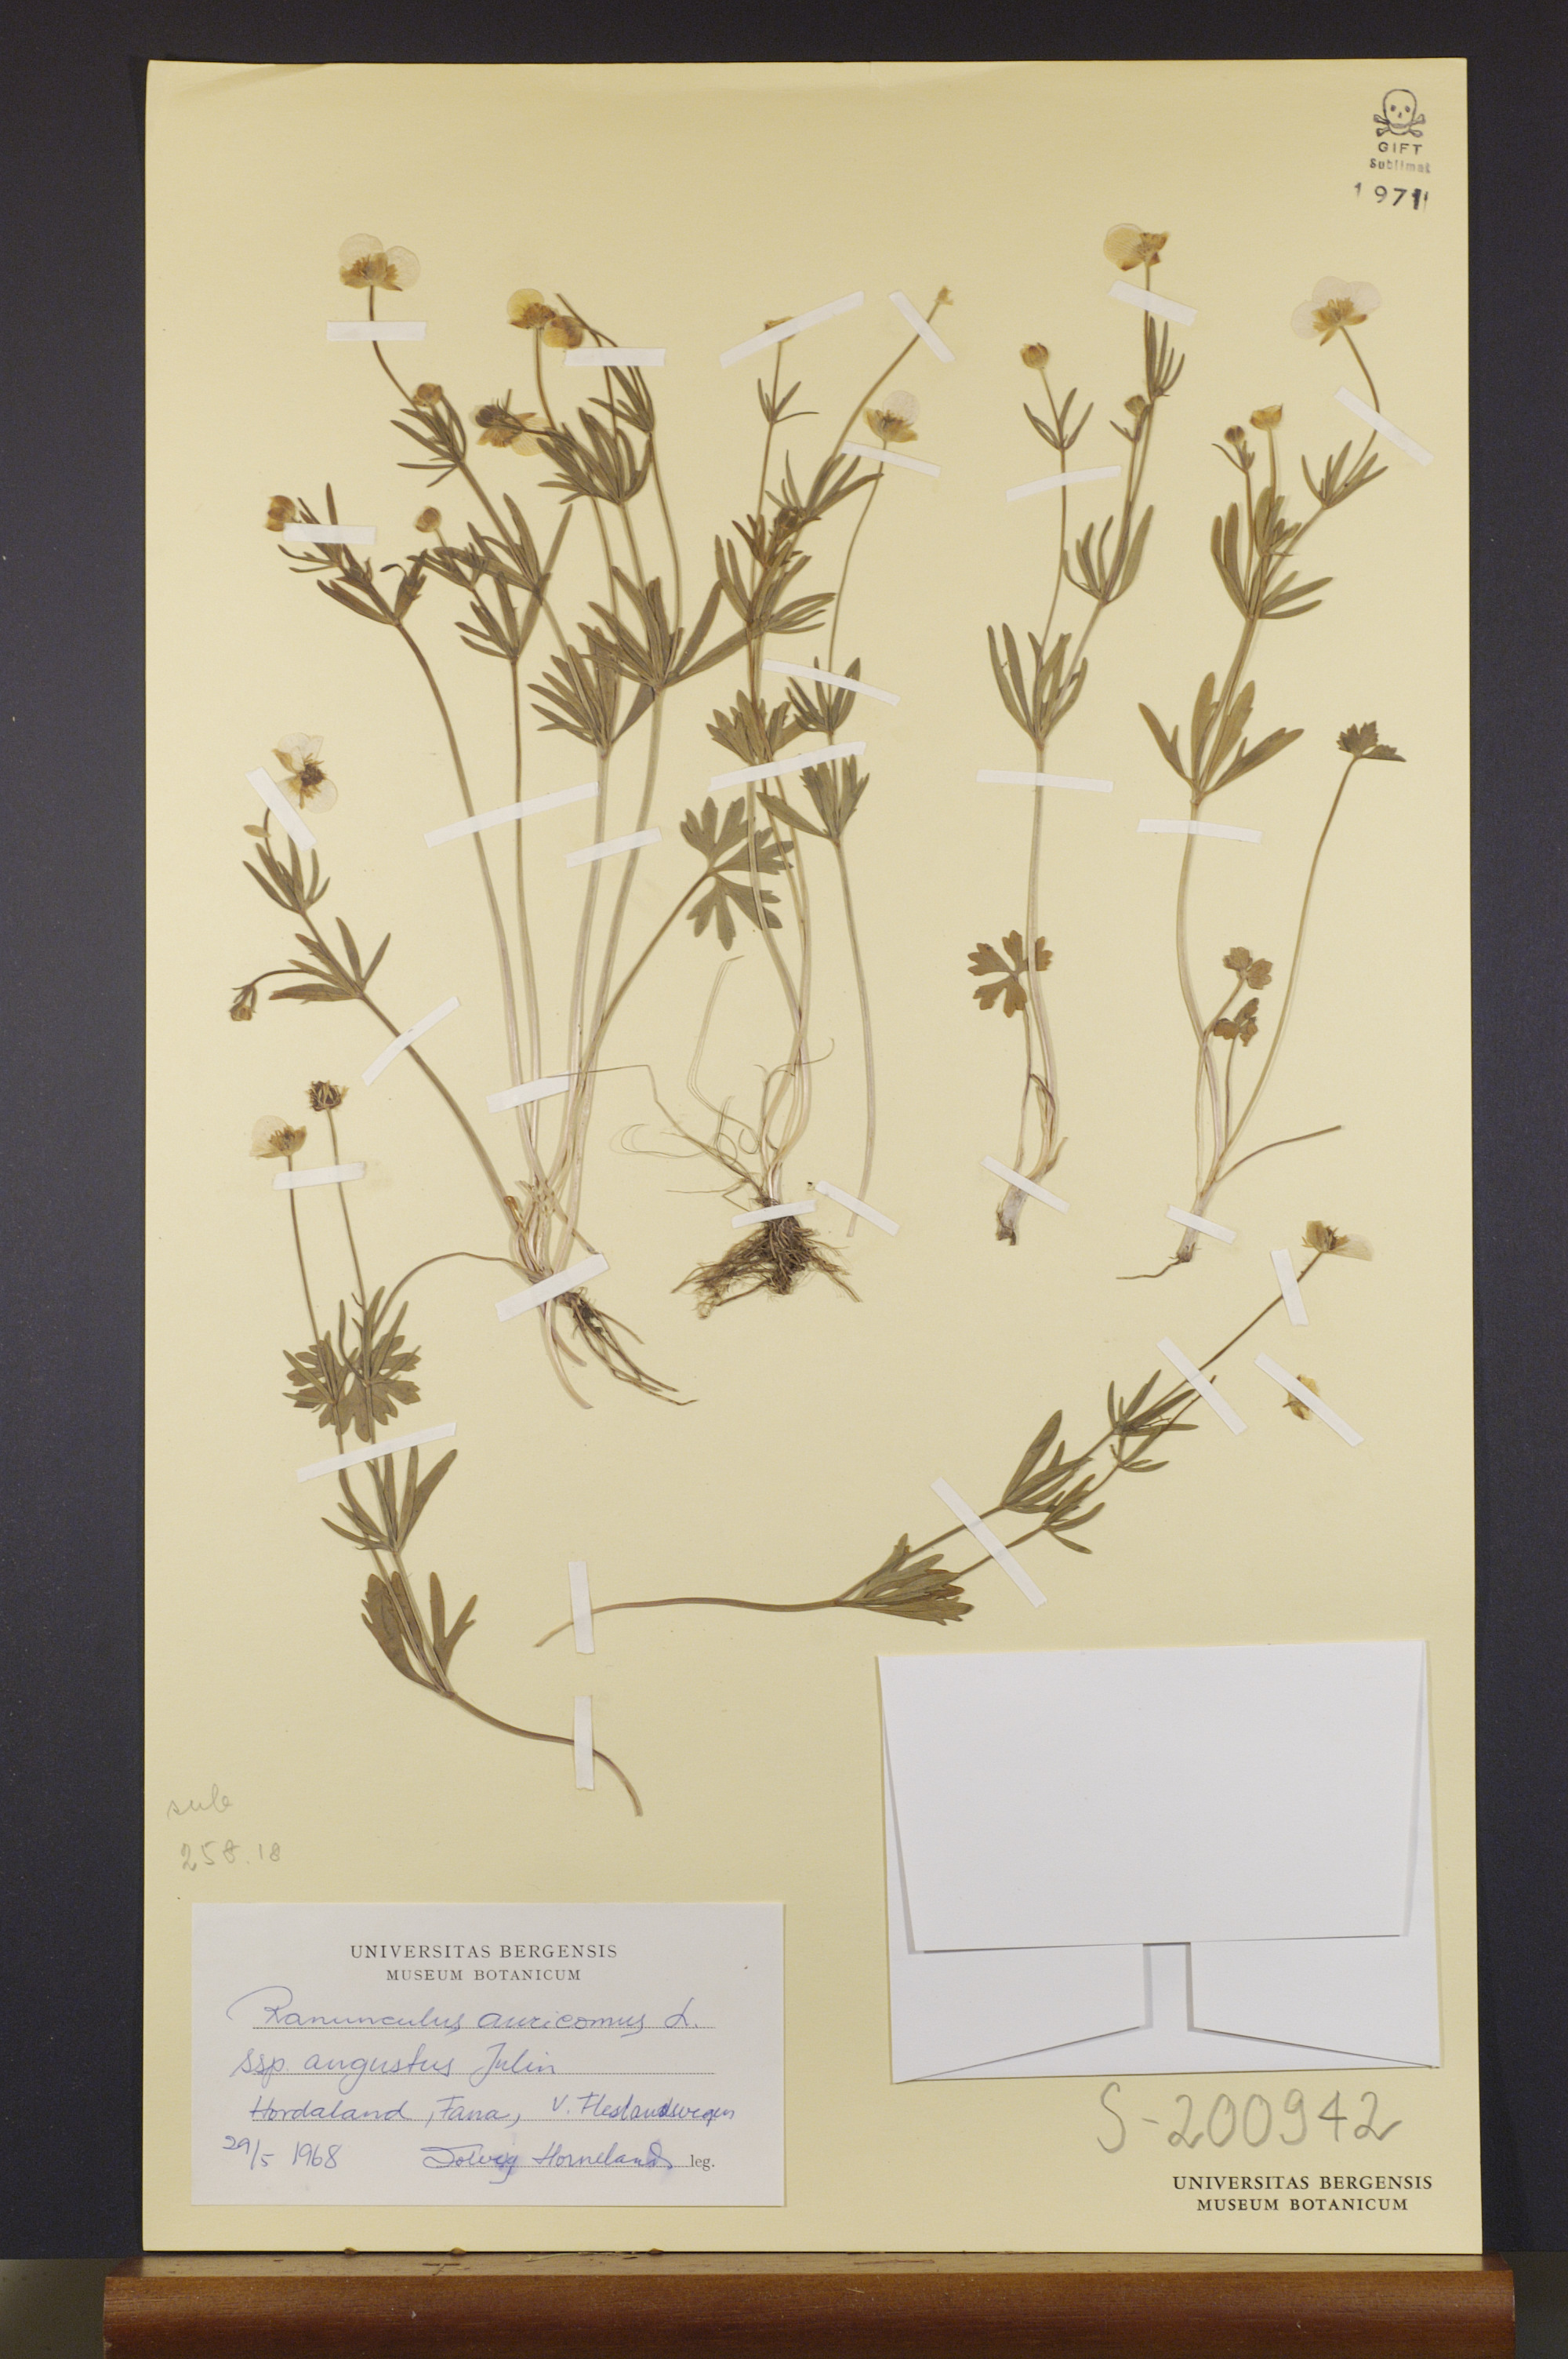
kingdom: Plantae
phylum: Tracheophyta
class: Magnoliopsida
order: Ranunculales
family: Ranunculaceae
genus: Ranunculus
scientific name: Ranunculus angustus
